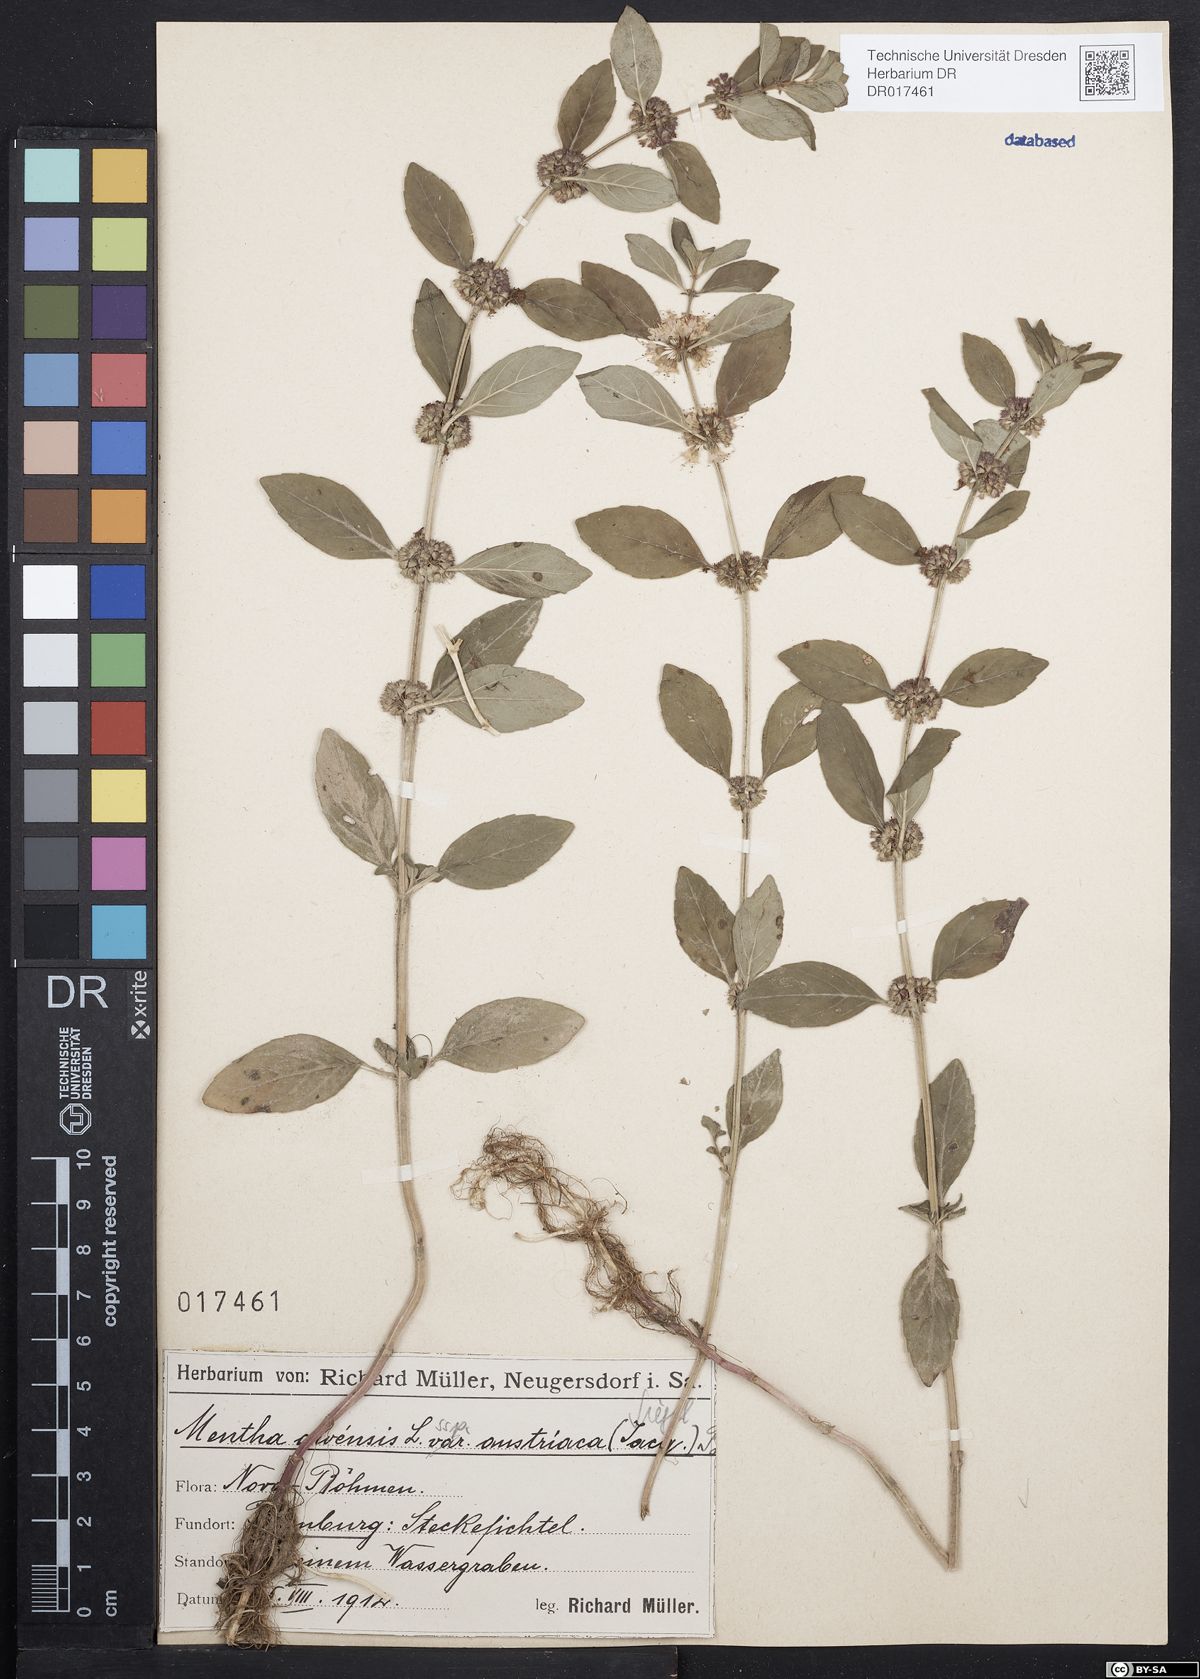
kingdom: Plantae
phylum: Tracheophyta
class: Magnoliopsida
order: Lamiales
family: Lamiaceae
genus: Mentha
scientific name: Mentha arvensis
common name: Corn mint
